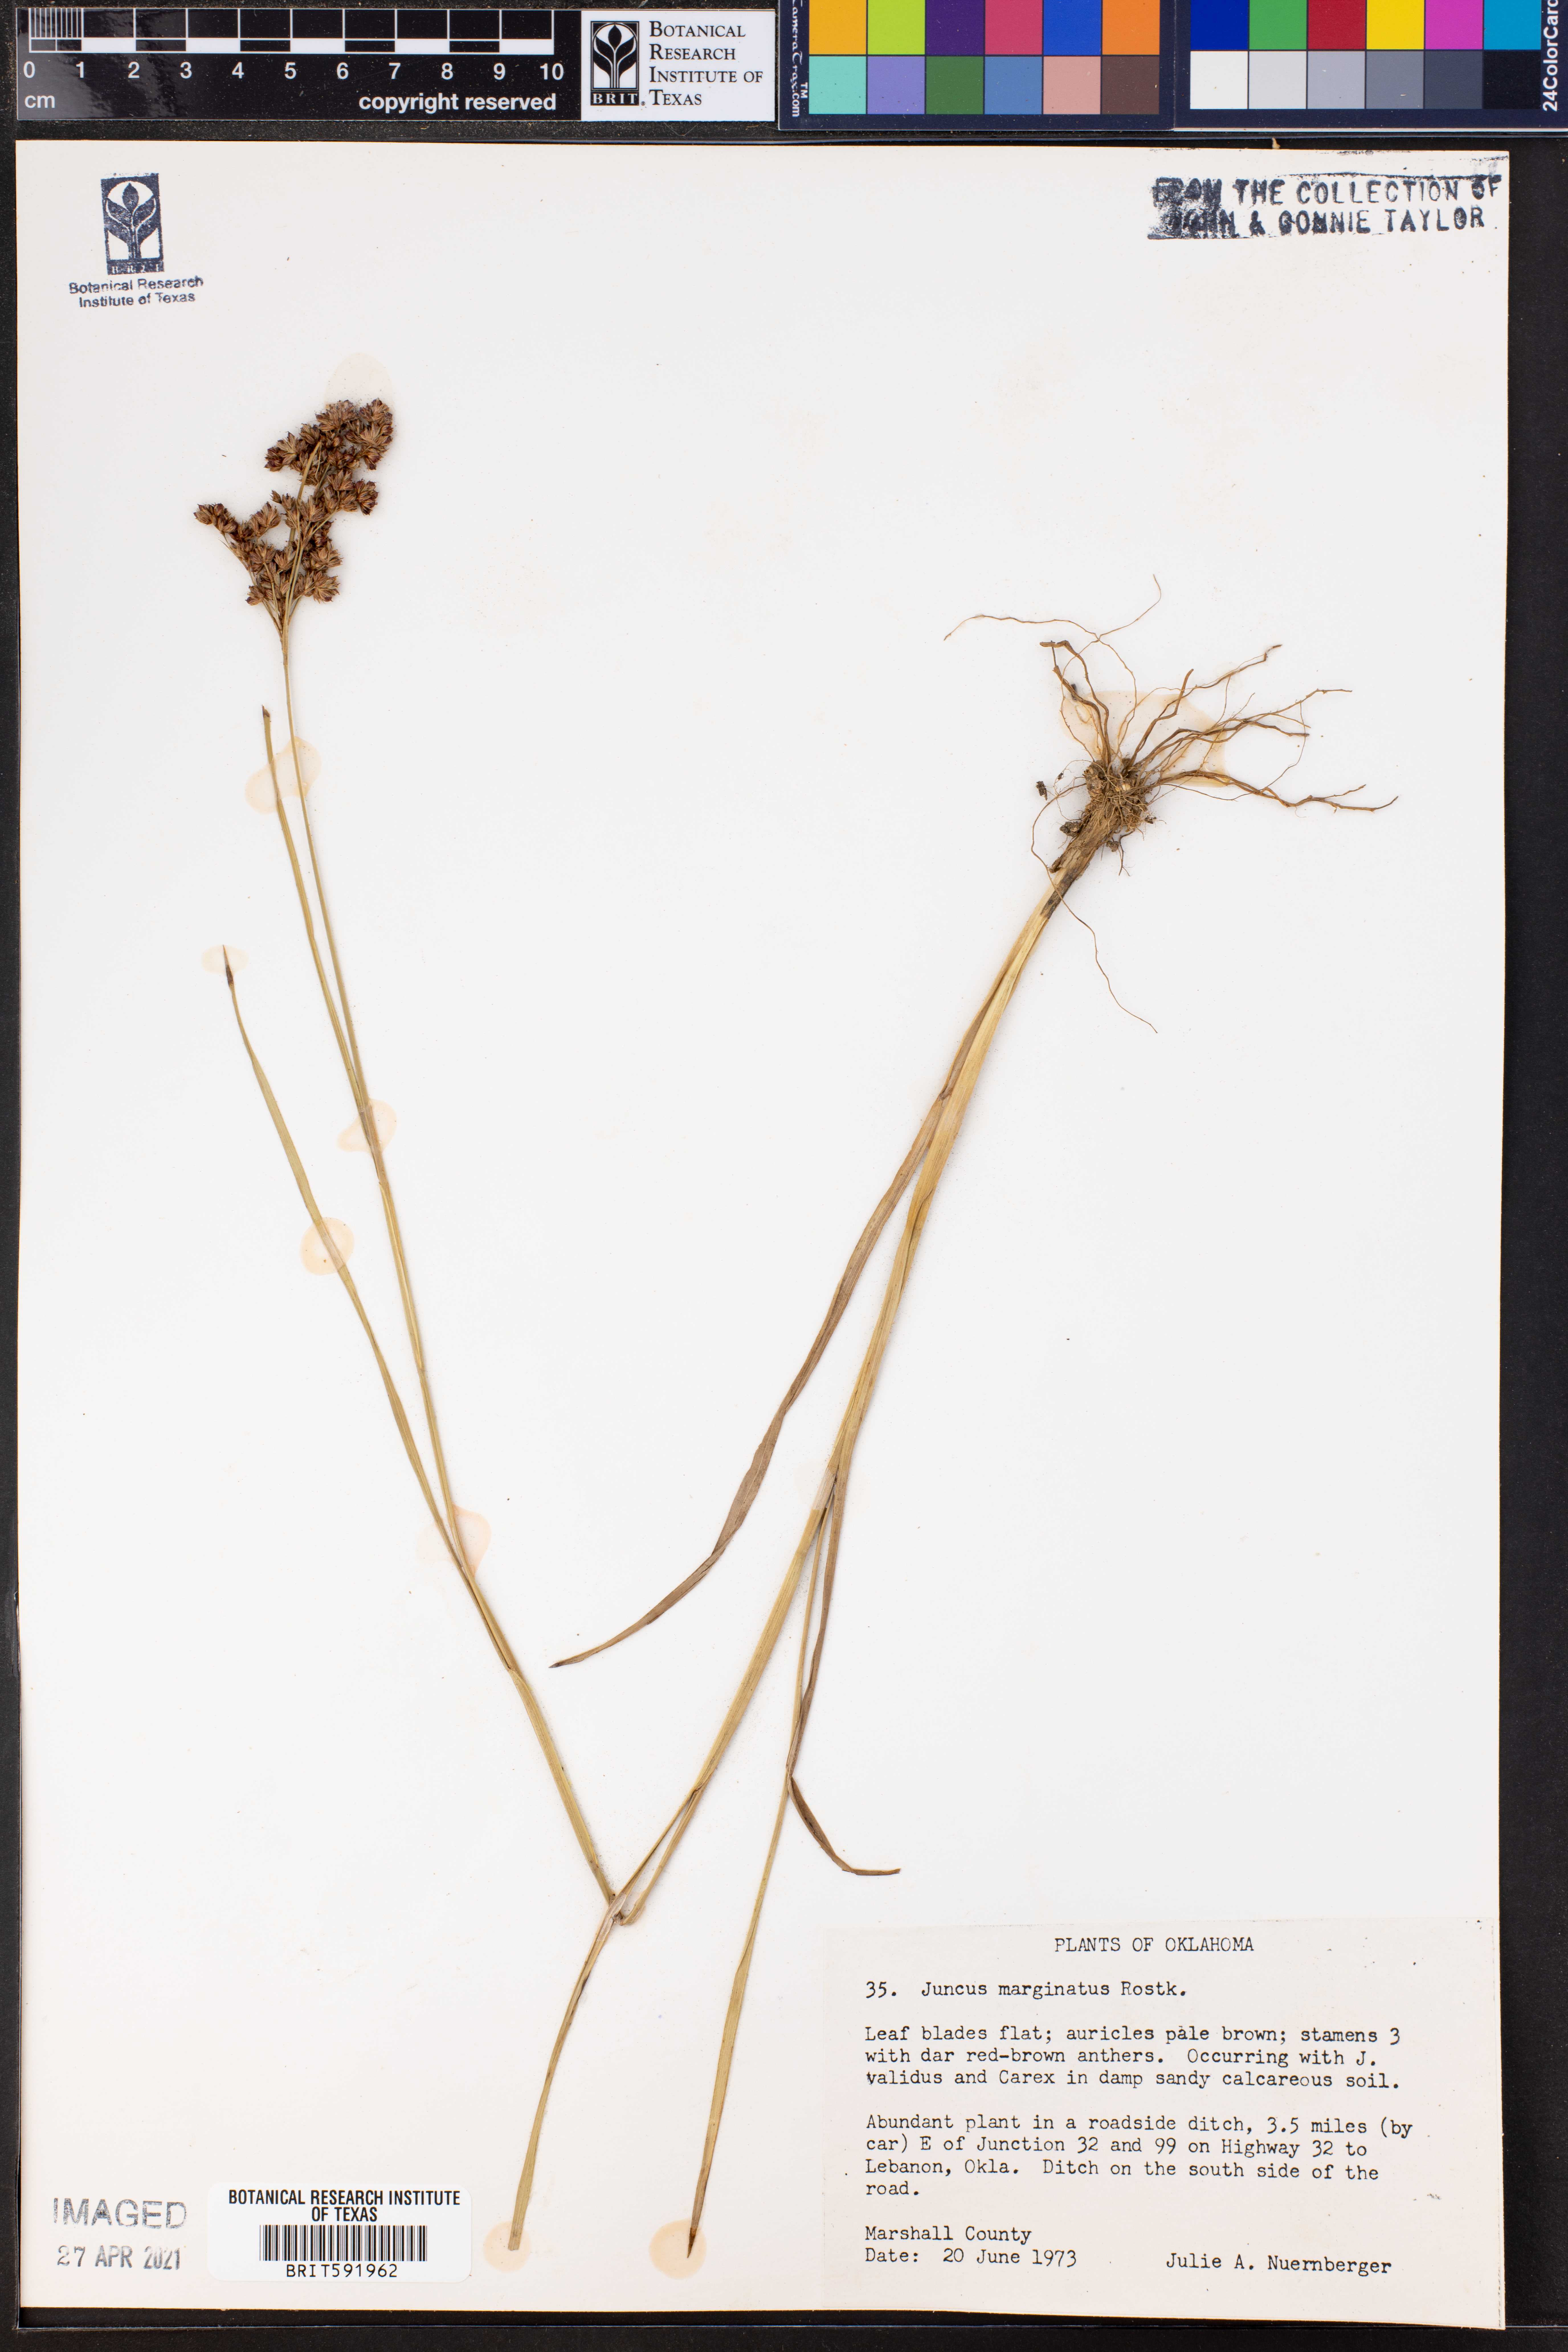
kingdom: Plantae
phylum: Tracheophyta
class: Liliopsida
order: Poales
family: Juncaceae
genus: Juncus
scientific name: Juncus marginatus
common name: Grass-leaf rush
